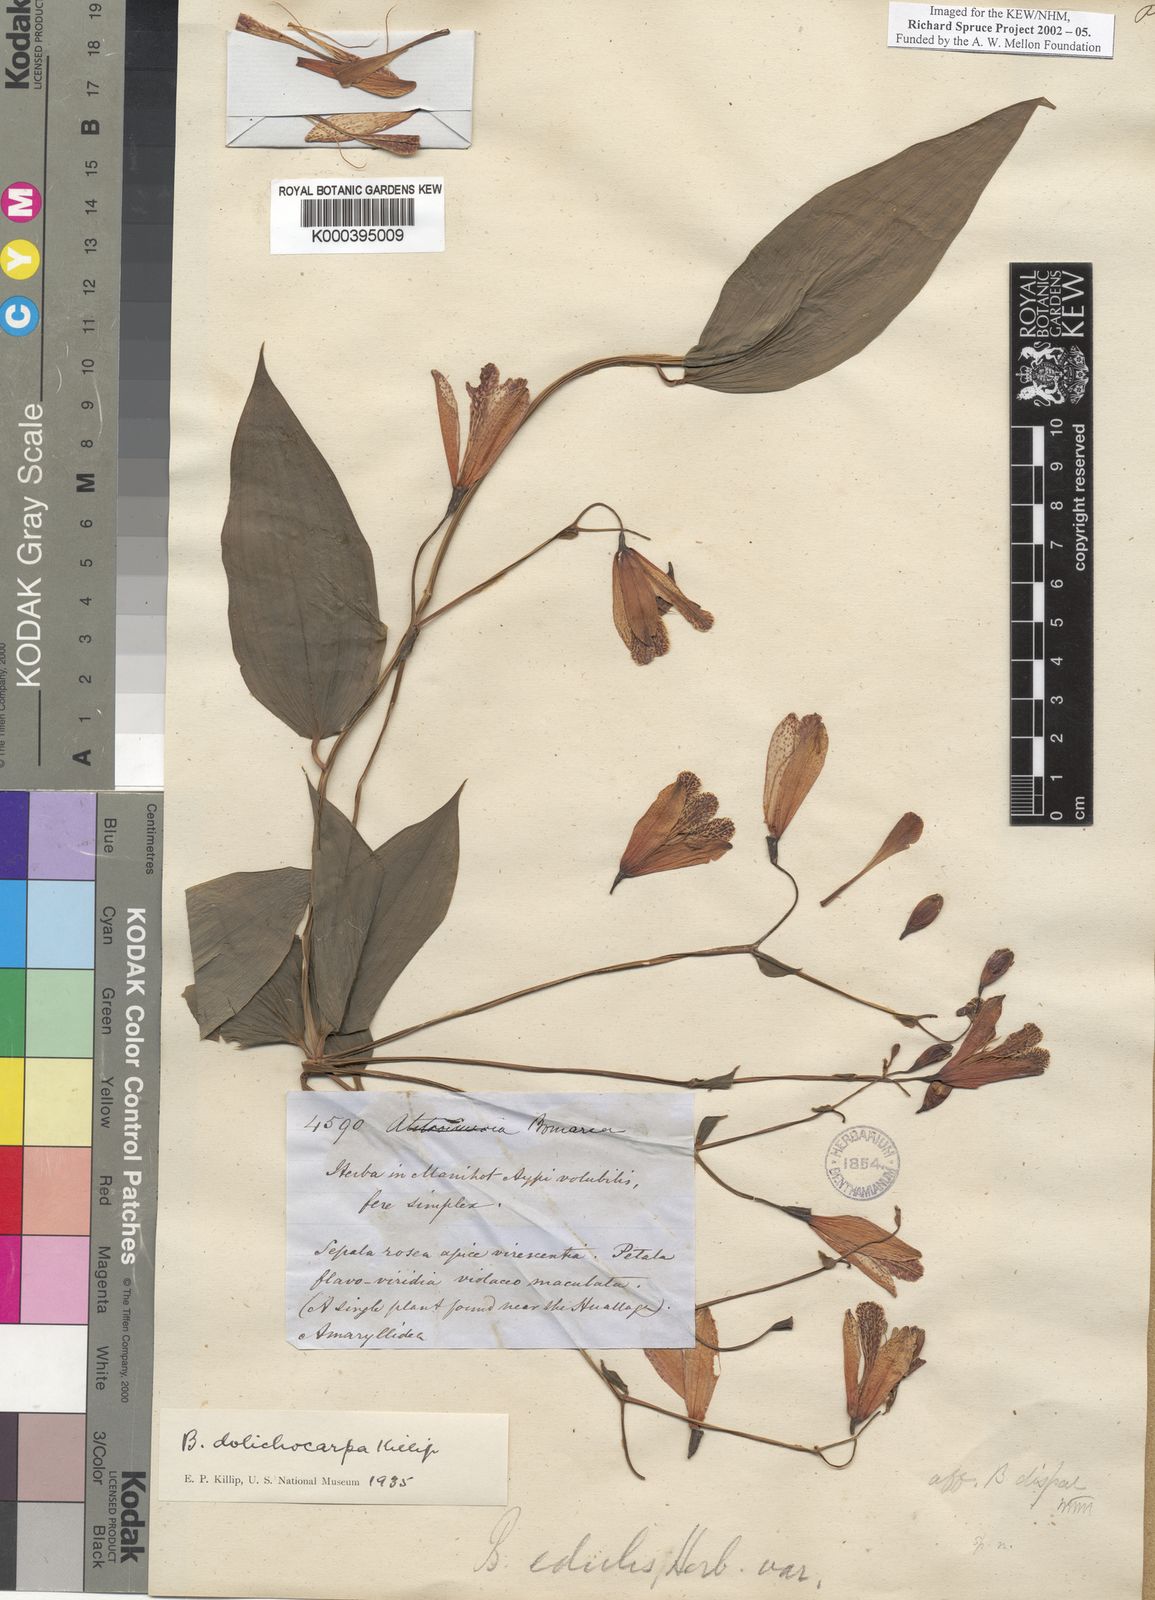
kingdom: Plantae
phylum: Tracheophyta
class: Liliopsida
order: Liliales
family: Alstroemeriaceae
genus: Bomarea
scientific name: Bomarea dolichocarpa
